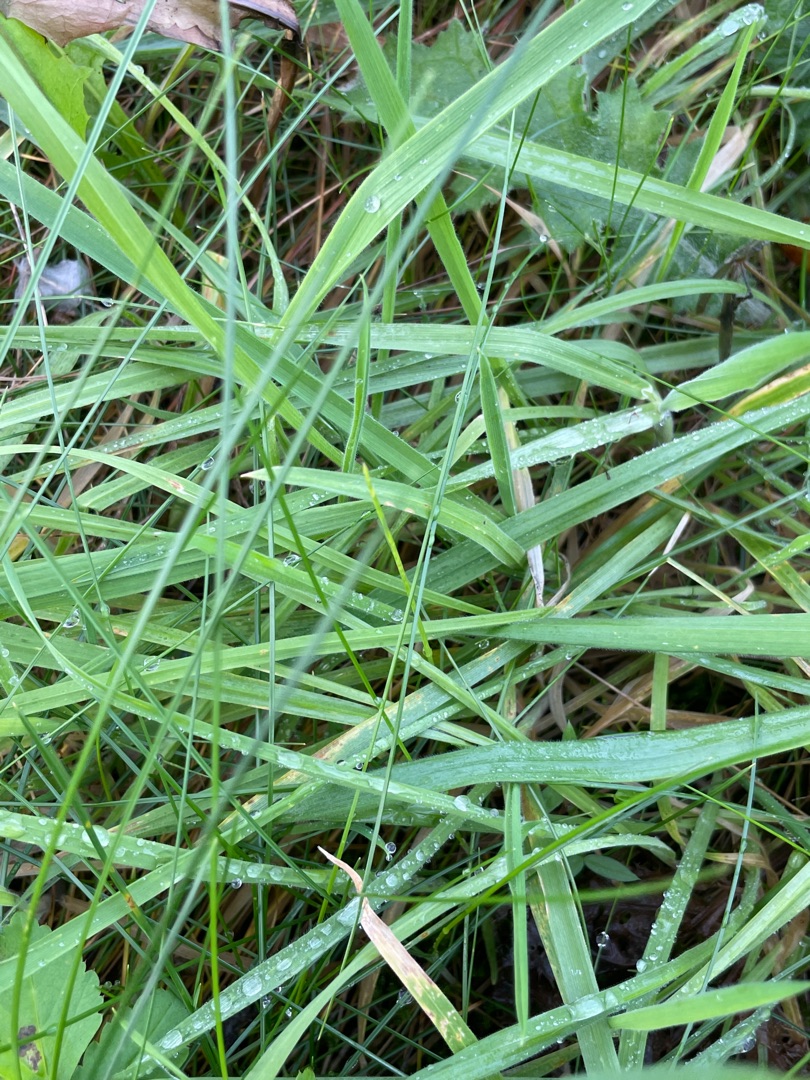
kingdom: Plantae
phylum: Tracheophyta
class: Liliopsida
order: Poales
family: Poaceae
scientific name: Poaceae
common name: Græsfamilien
